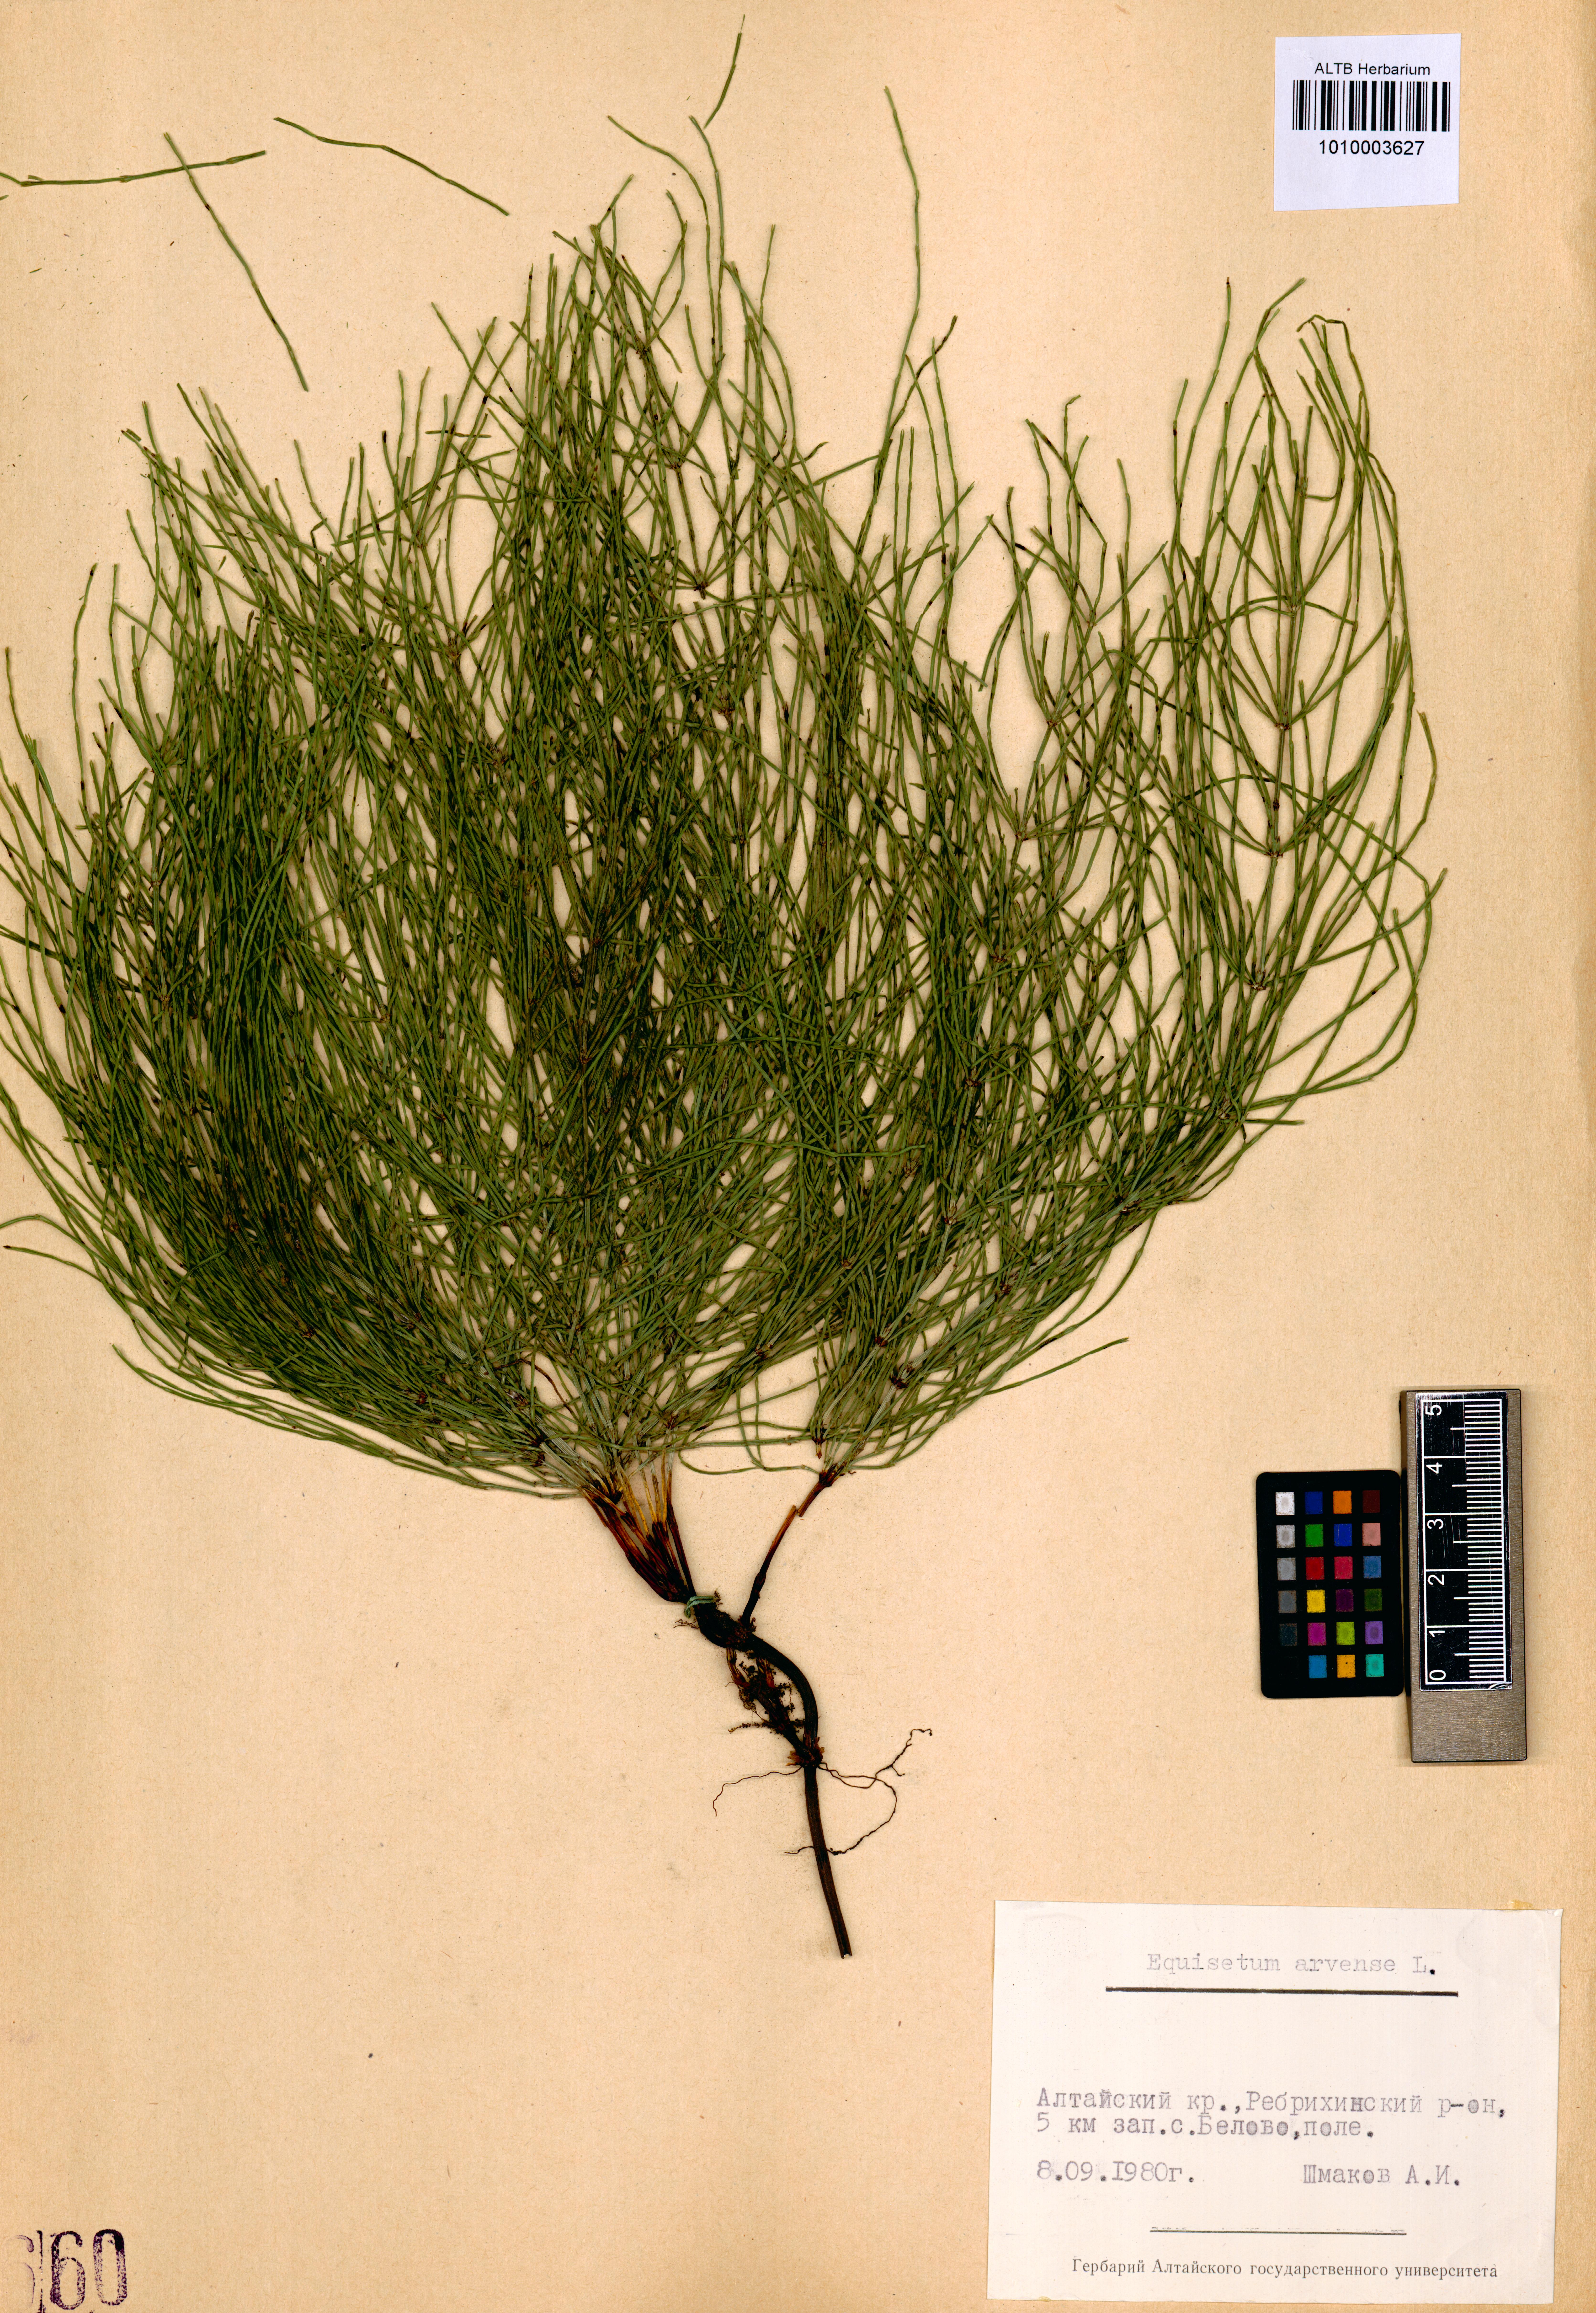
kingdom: Plantae
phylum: Tracheophyta
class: Polypodiopsida
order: Equisetales
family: Equisetaceae
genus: Equisetum
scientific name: Equisetum arvense
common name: Field horsetail
